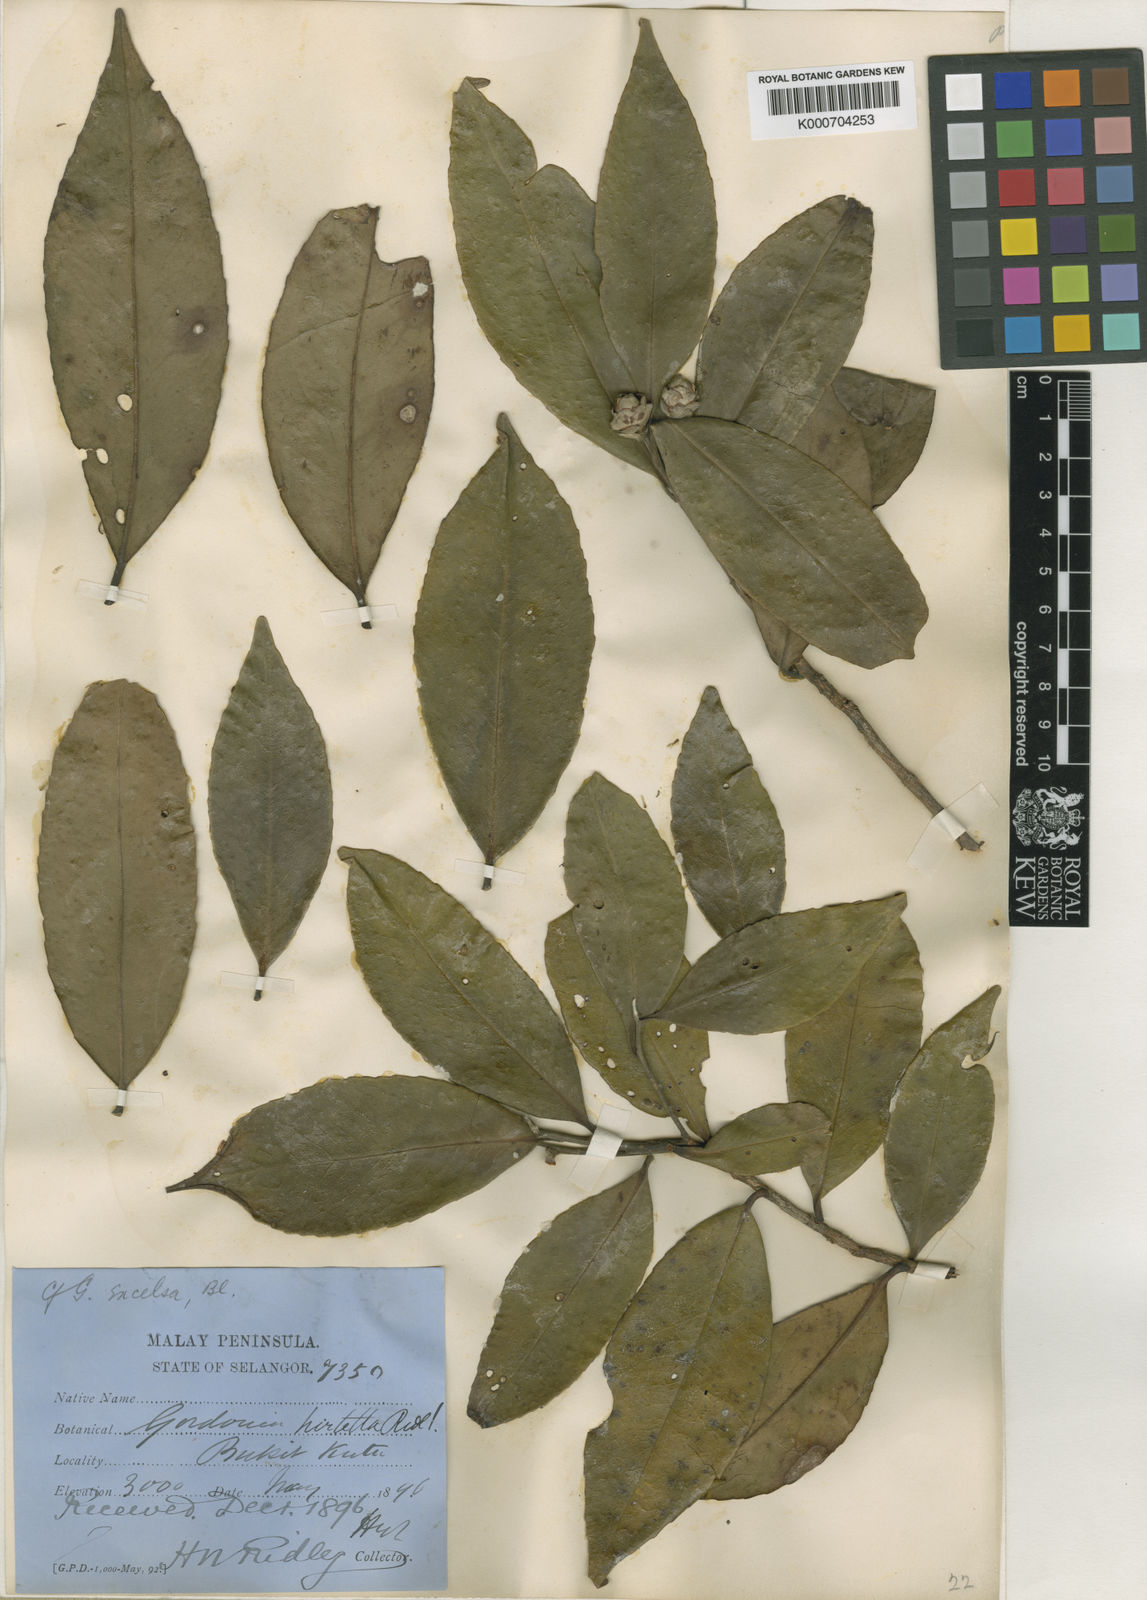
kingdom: Plantae
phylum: Tracheophyta
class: Magnoliopsida
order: Ericales
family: Theaceae
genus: Polyspora
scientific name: Polyspora hirtella
